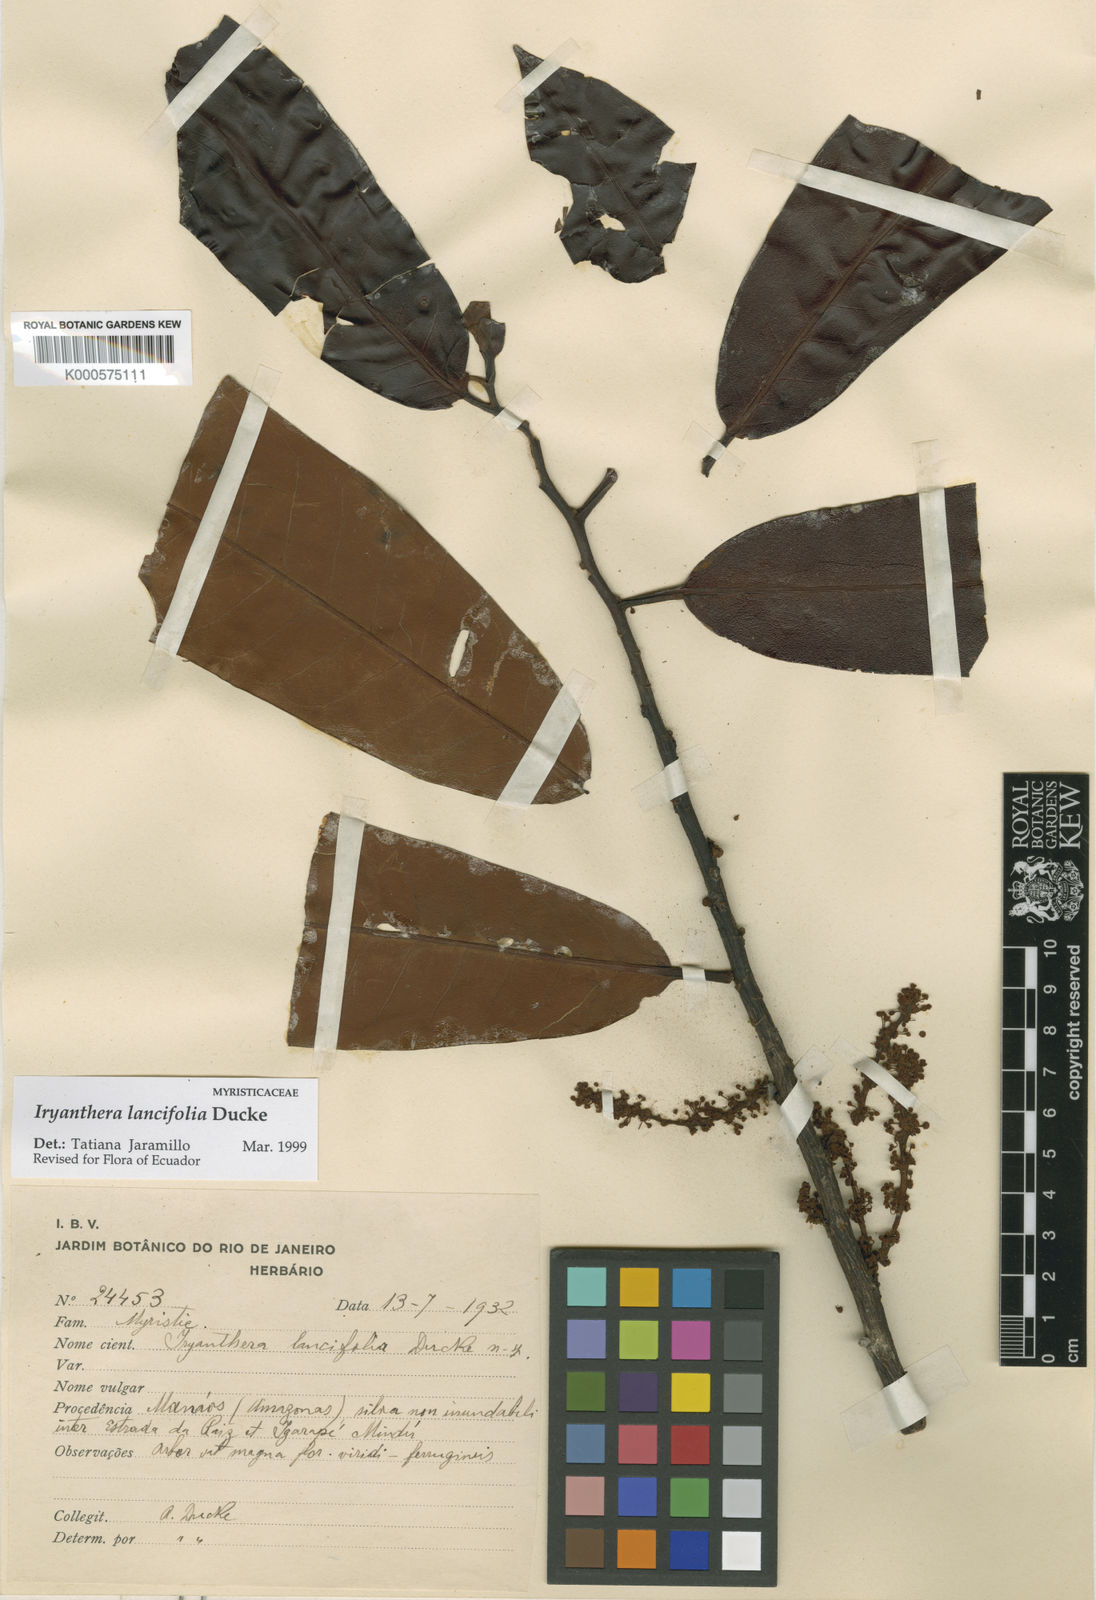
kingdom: Plantae
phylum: Tracheophyta
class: Magnoliopsida
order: Magnoliales
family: Myristicaceae
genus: Iryanthera
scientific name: Iryanthera lancifolia
